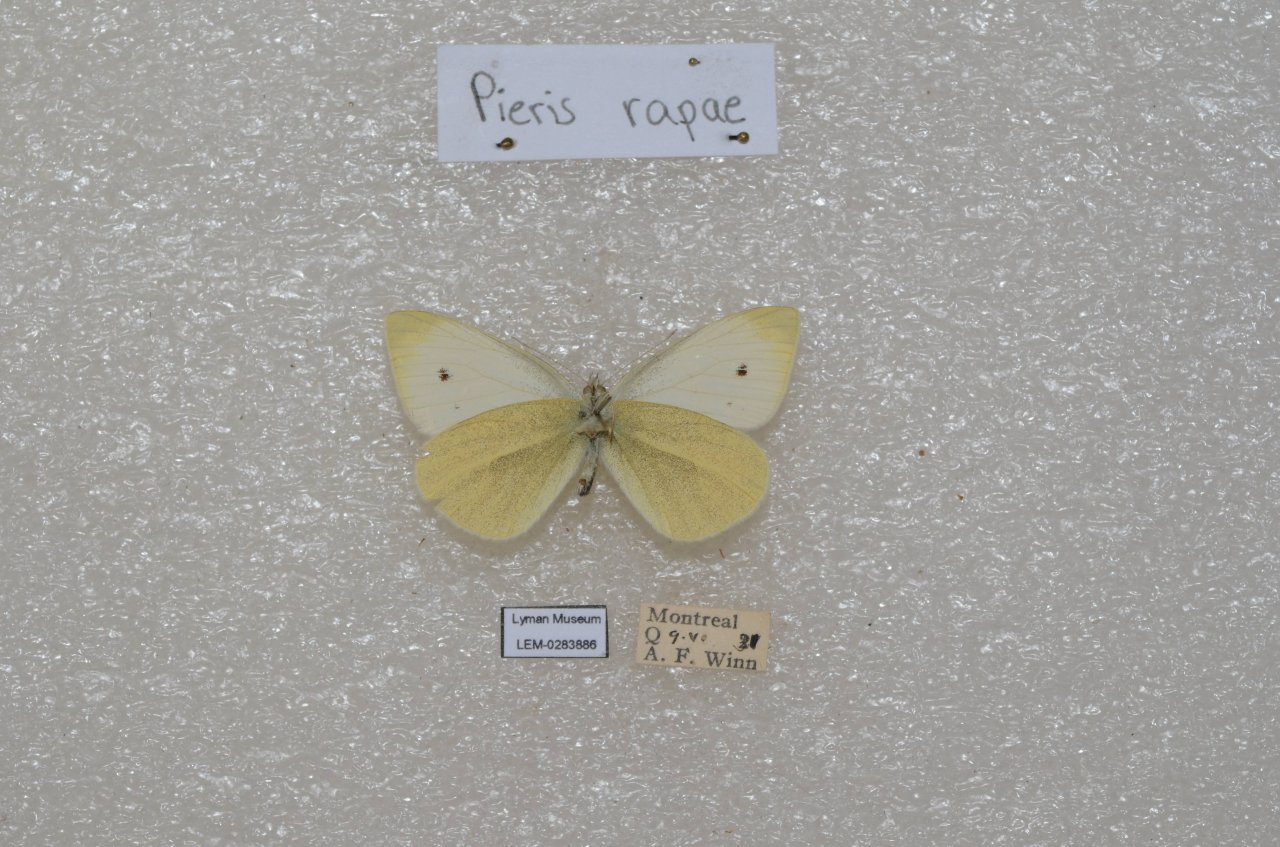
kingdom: Animalia
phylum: Arthropoda
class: Insecta
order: Lepidoptera
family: Pieridae
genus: Pieris
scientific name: Pieris rapae
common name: Cabbage White
